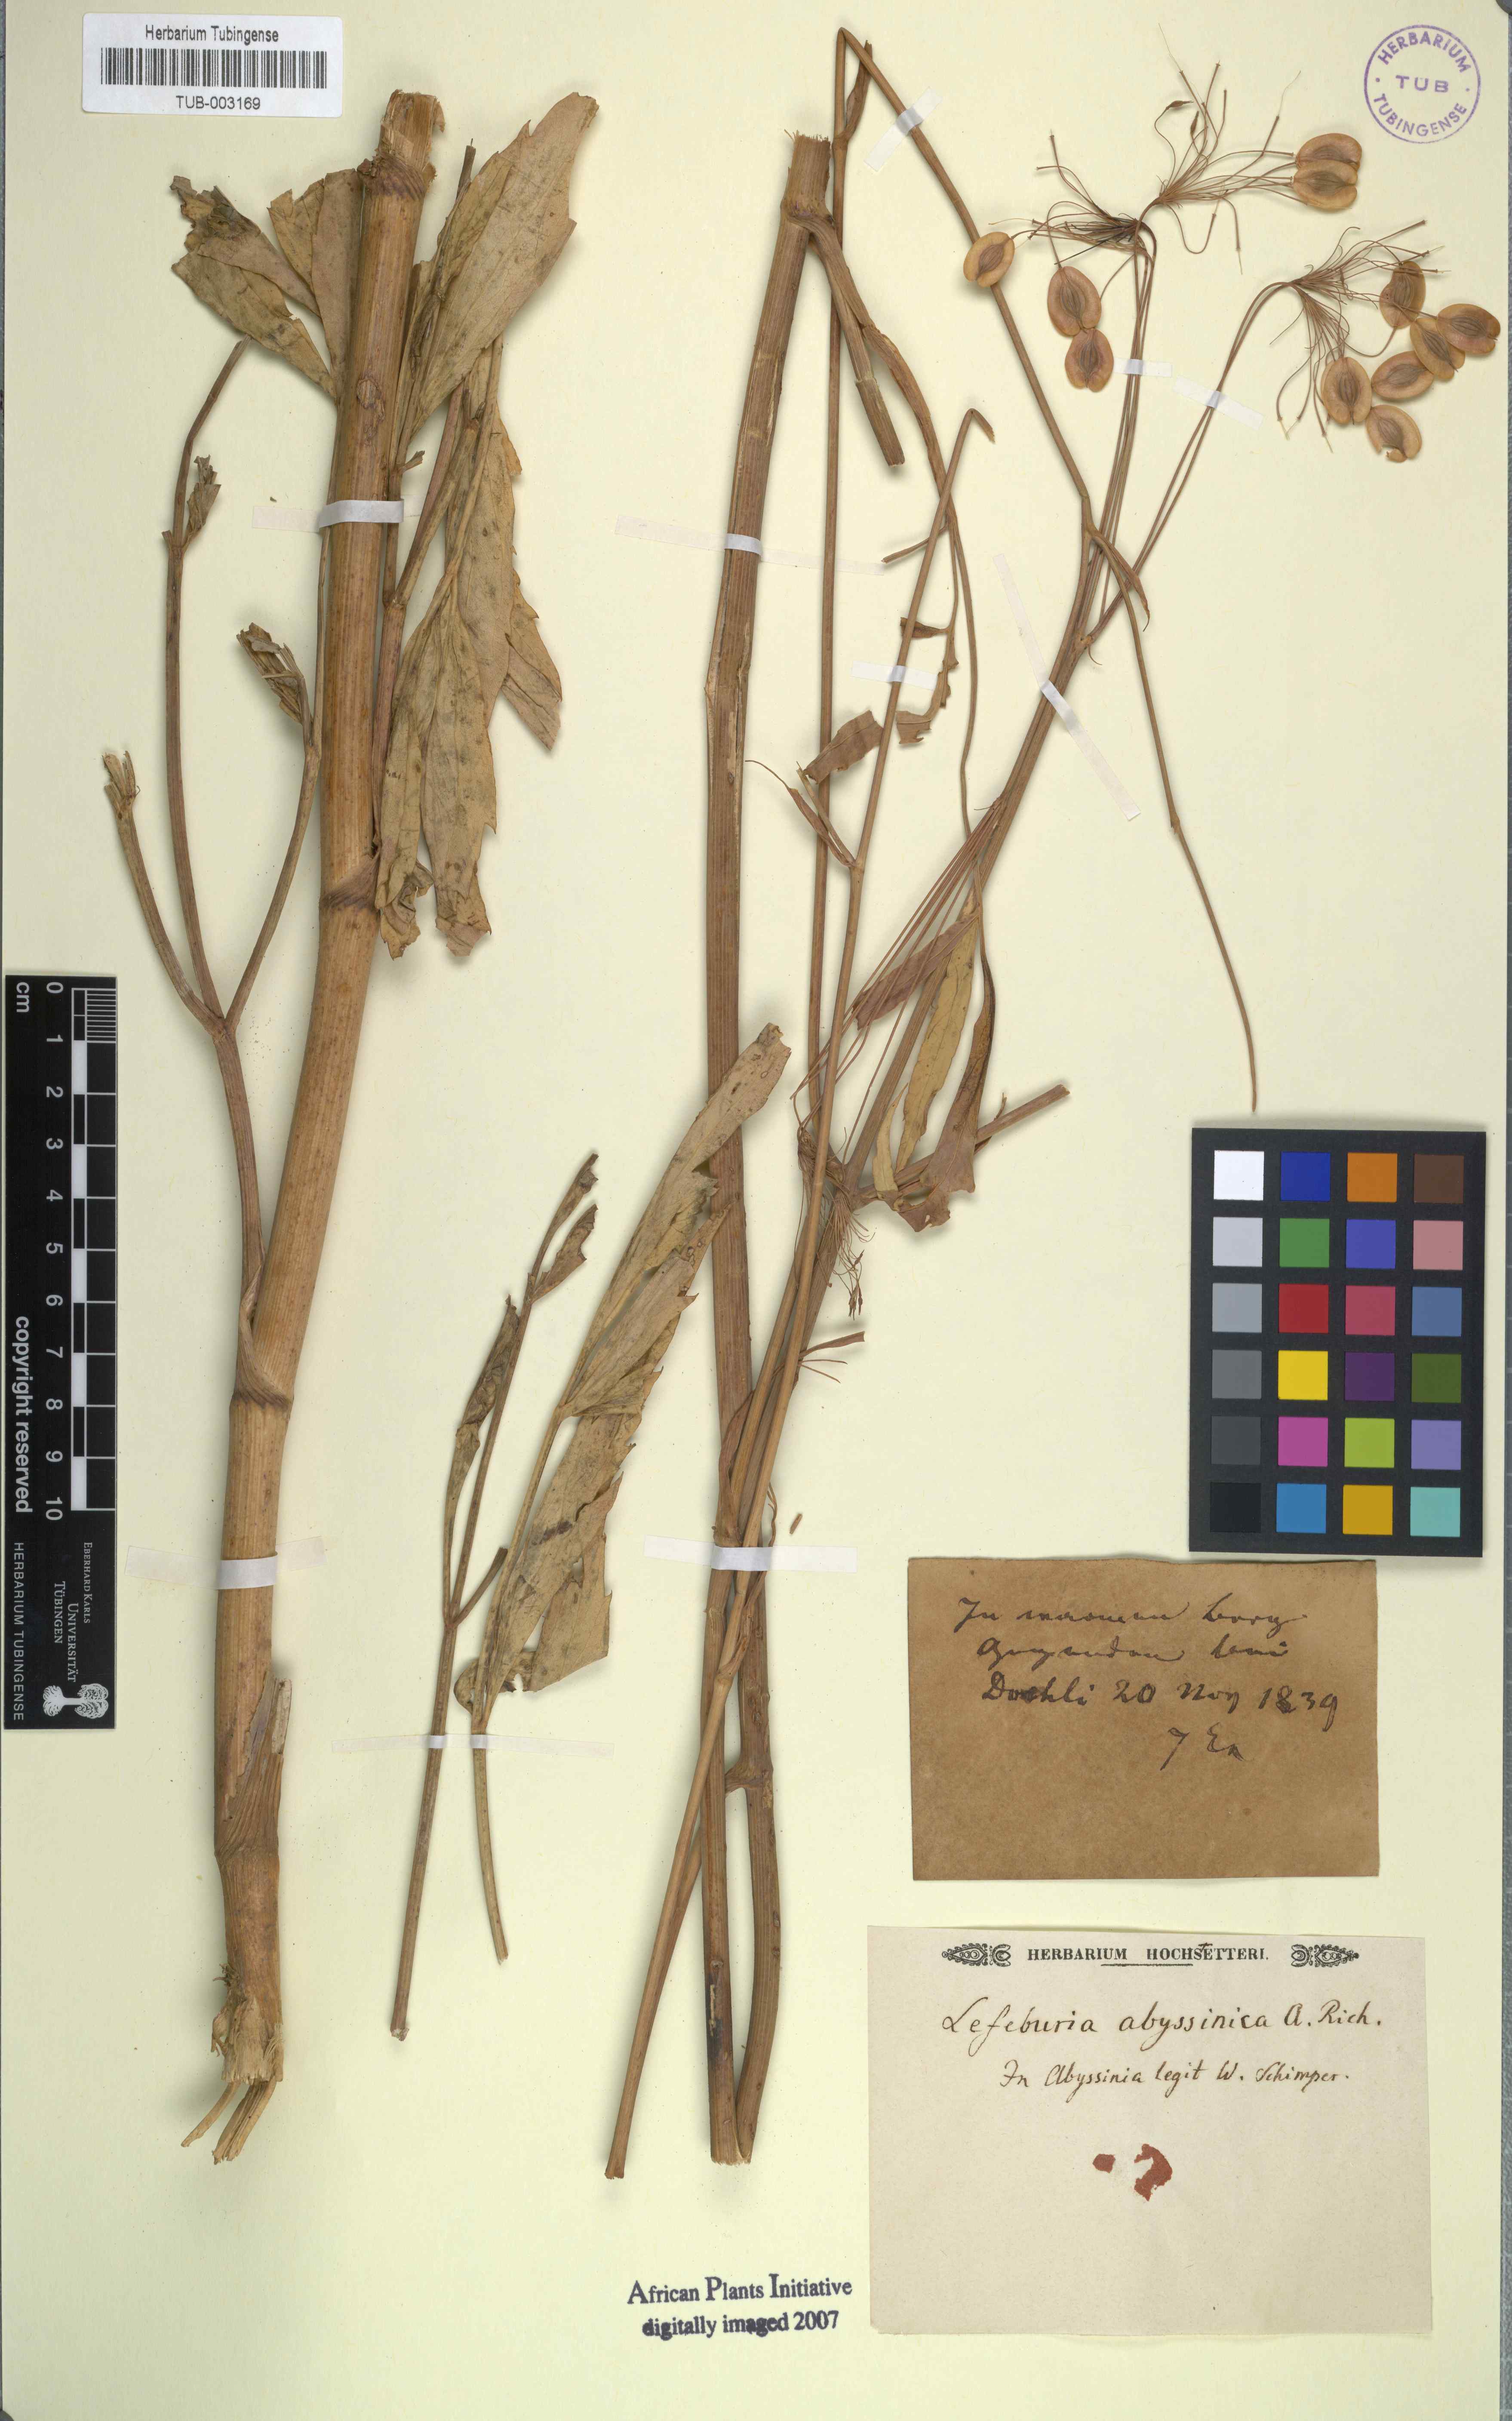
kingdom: Plantae
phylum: Tracheophyta
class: Magnoliopsida
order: Apiales
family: Apiaceae
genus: Lefebvrea
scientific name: Lefebvrea abyssinica
